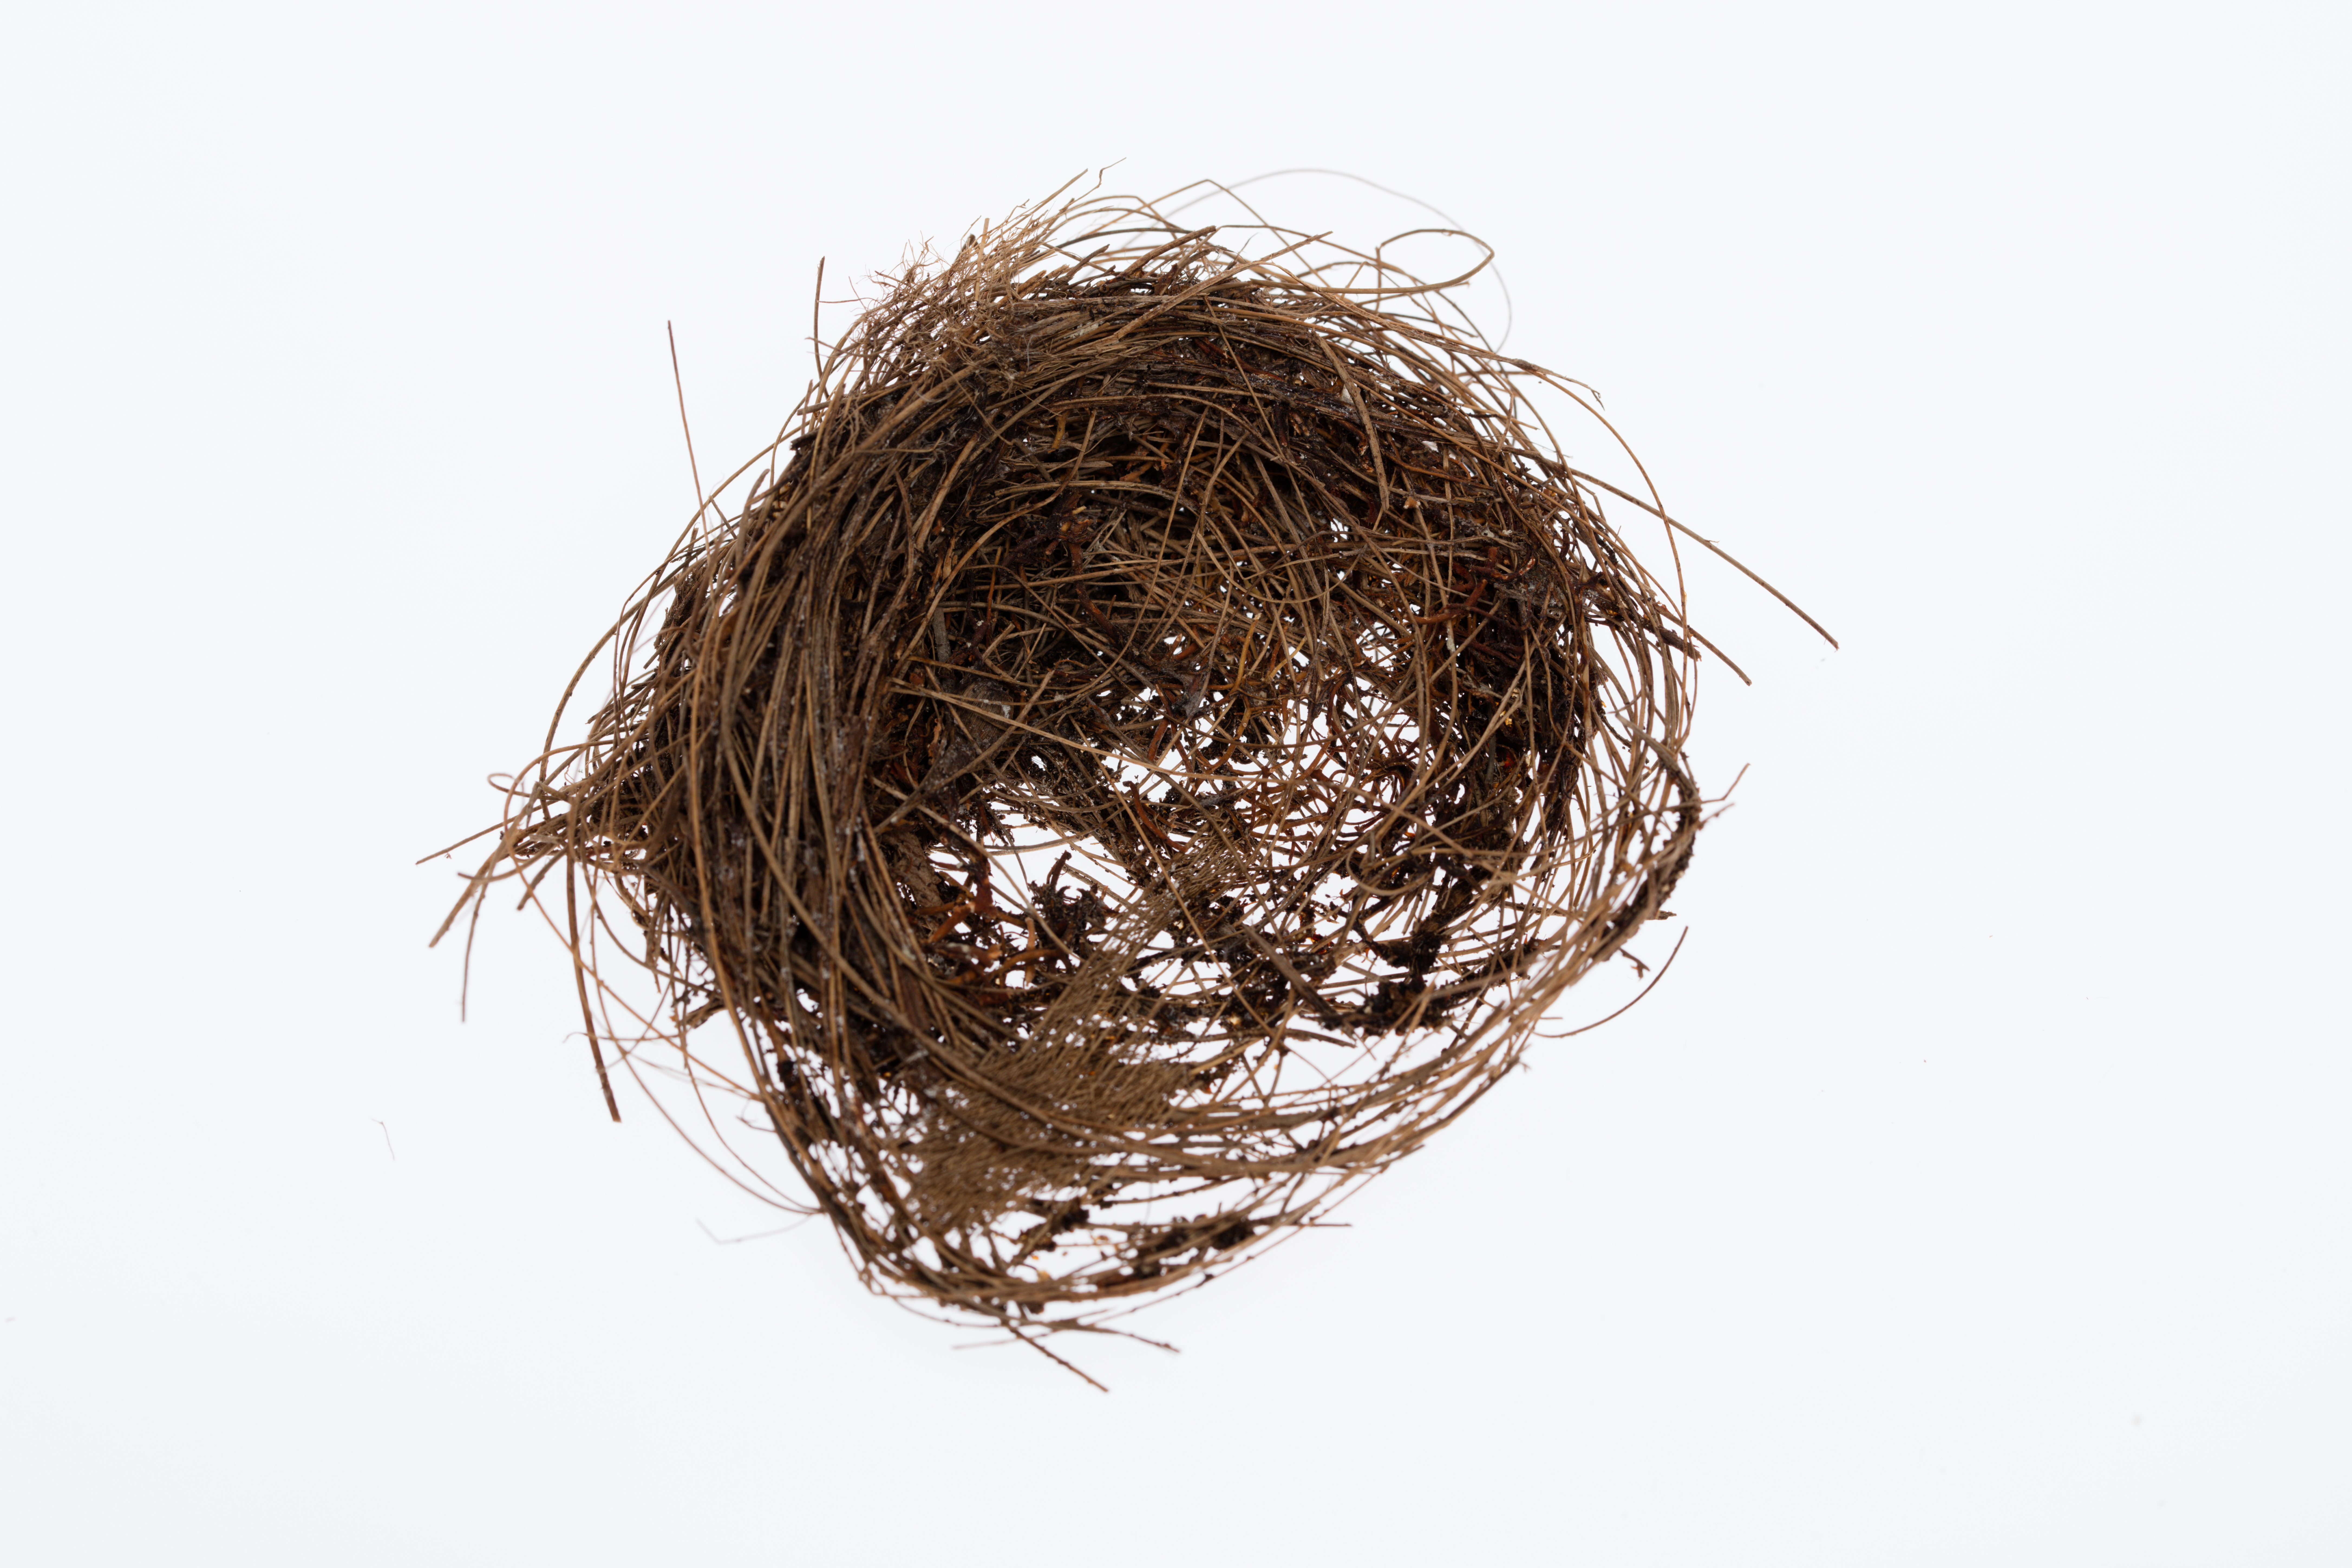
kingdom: Animalia
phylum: Chordata
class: Aves
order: Apodiformes
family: Apodidae
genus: Aerodramus
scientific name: Aerodramus leucophaeus
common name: Tahiti swiftlet
